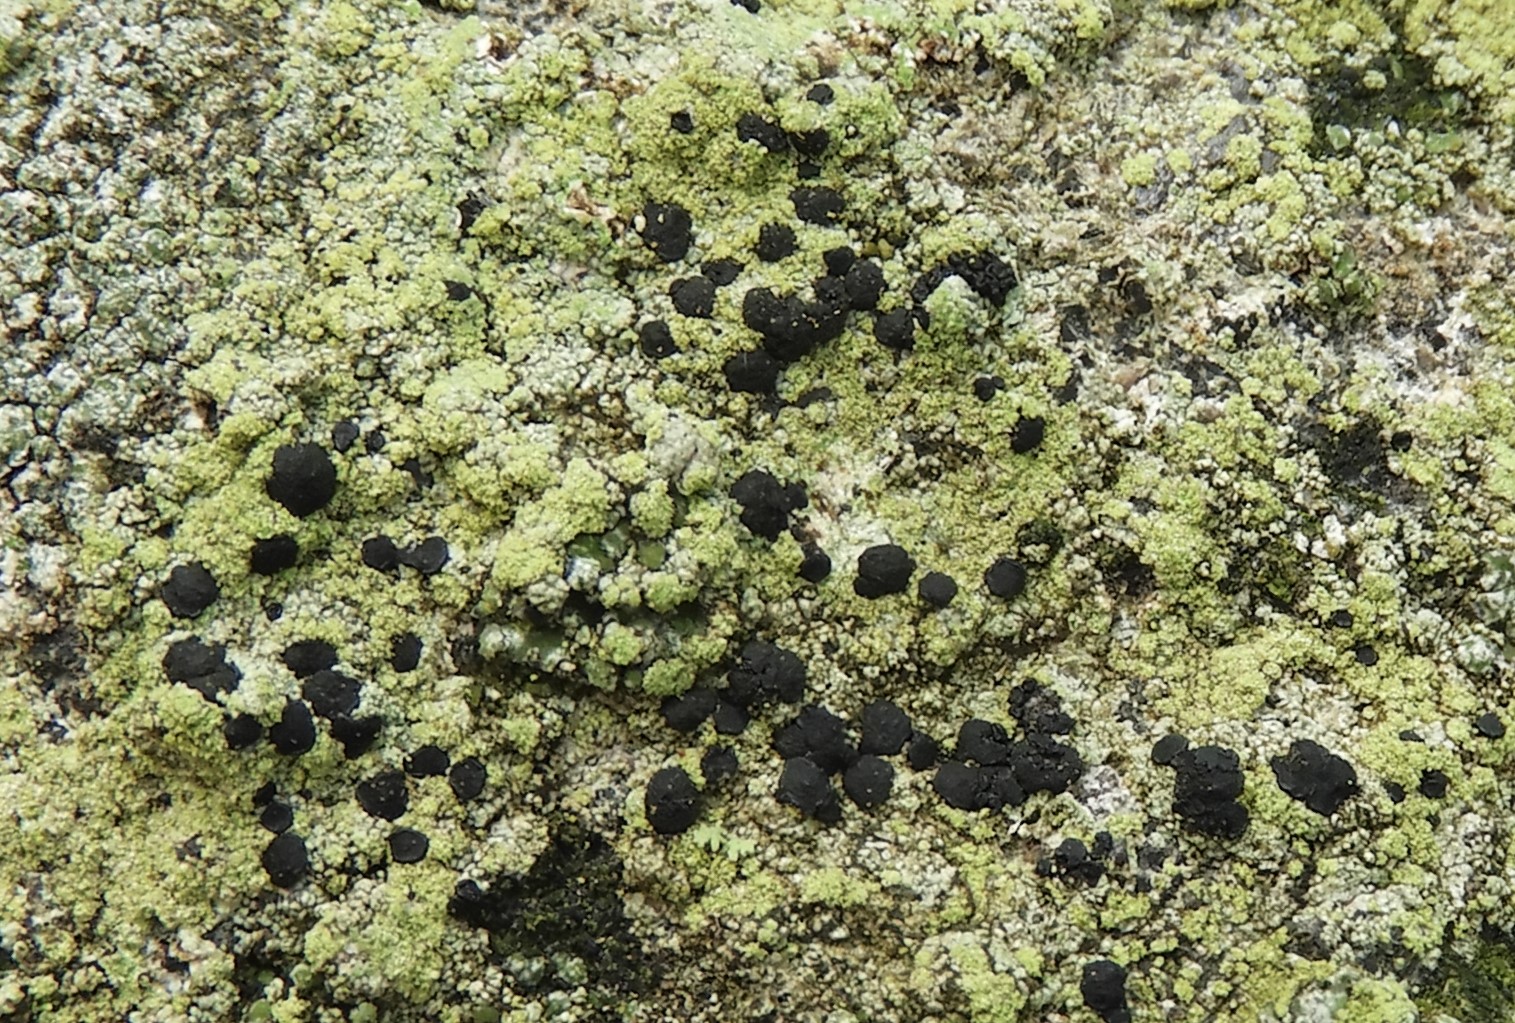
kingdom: Fungi
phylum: Ascomycota
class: Lecanoromycetes
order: Lecanorales
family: Lecanoraceae
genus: Lecidella
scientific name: Lecidella scabra
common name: skurvet skivelav
